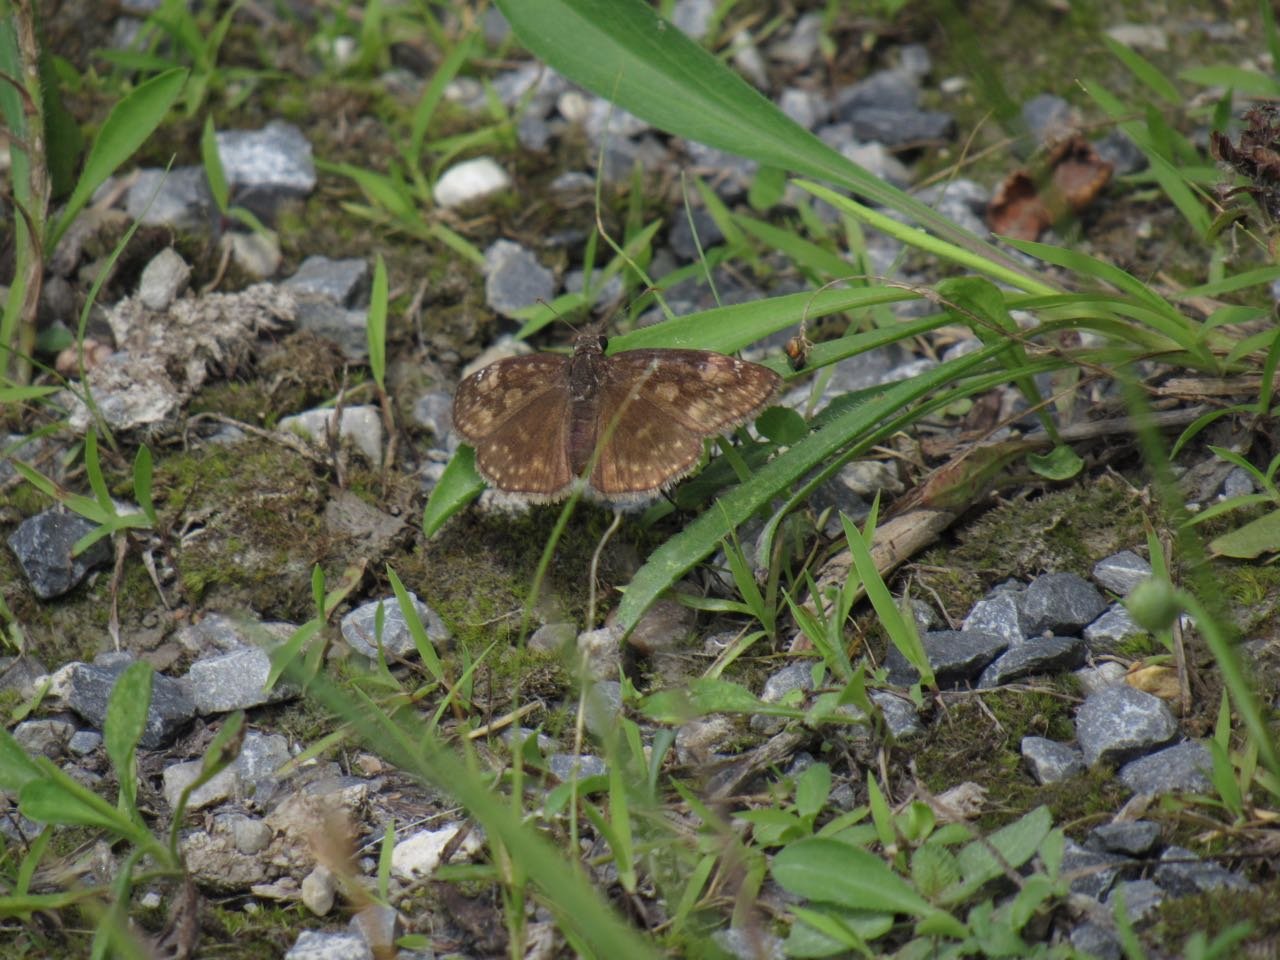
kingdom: Animalia
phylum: Arthropoda
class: Insecta
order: Lepidoptera
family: Hesperiidae
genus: Gesta
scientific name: Gesta
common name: Wild Indigo Duskywing
